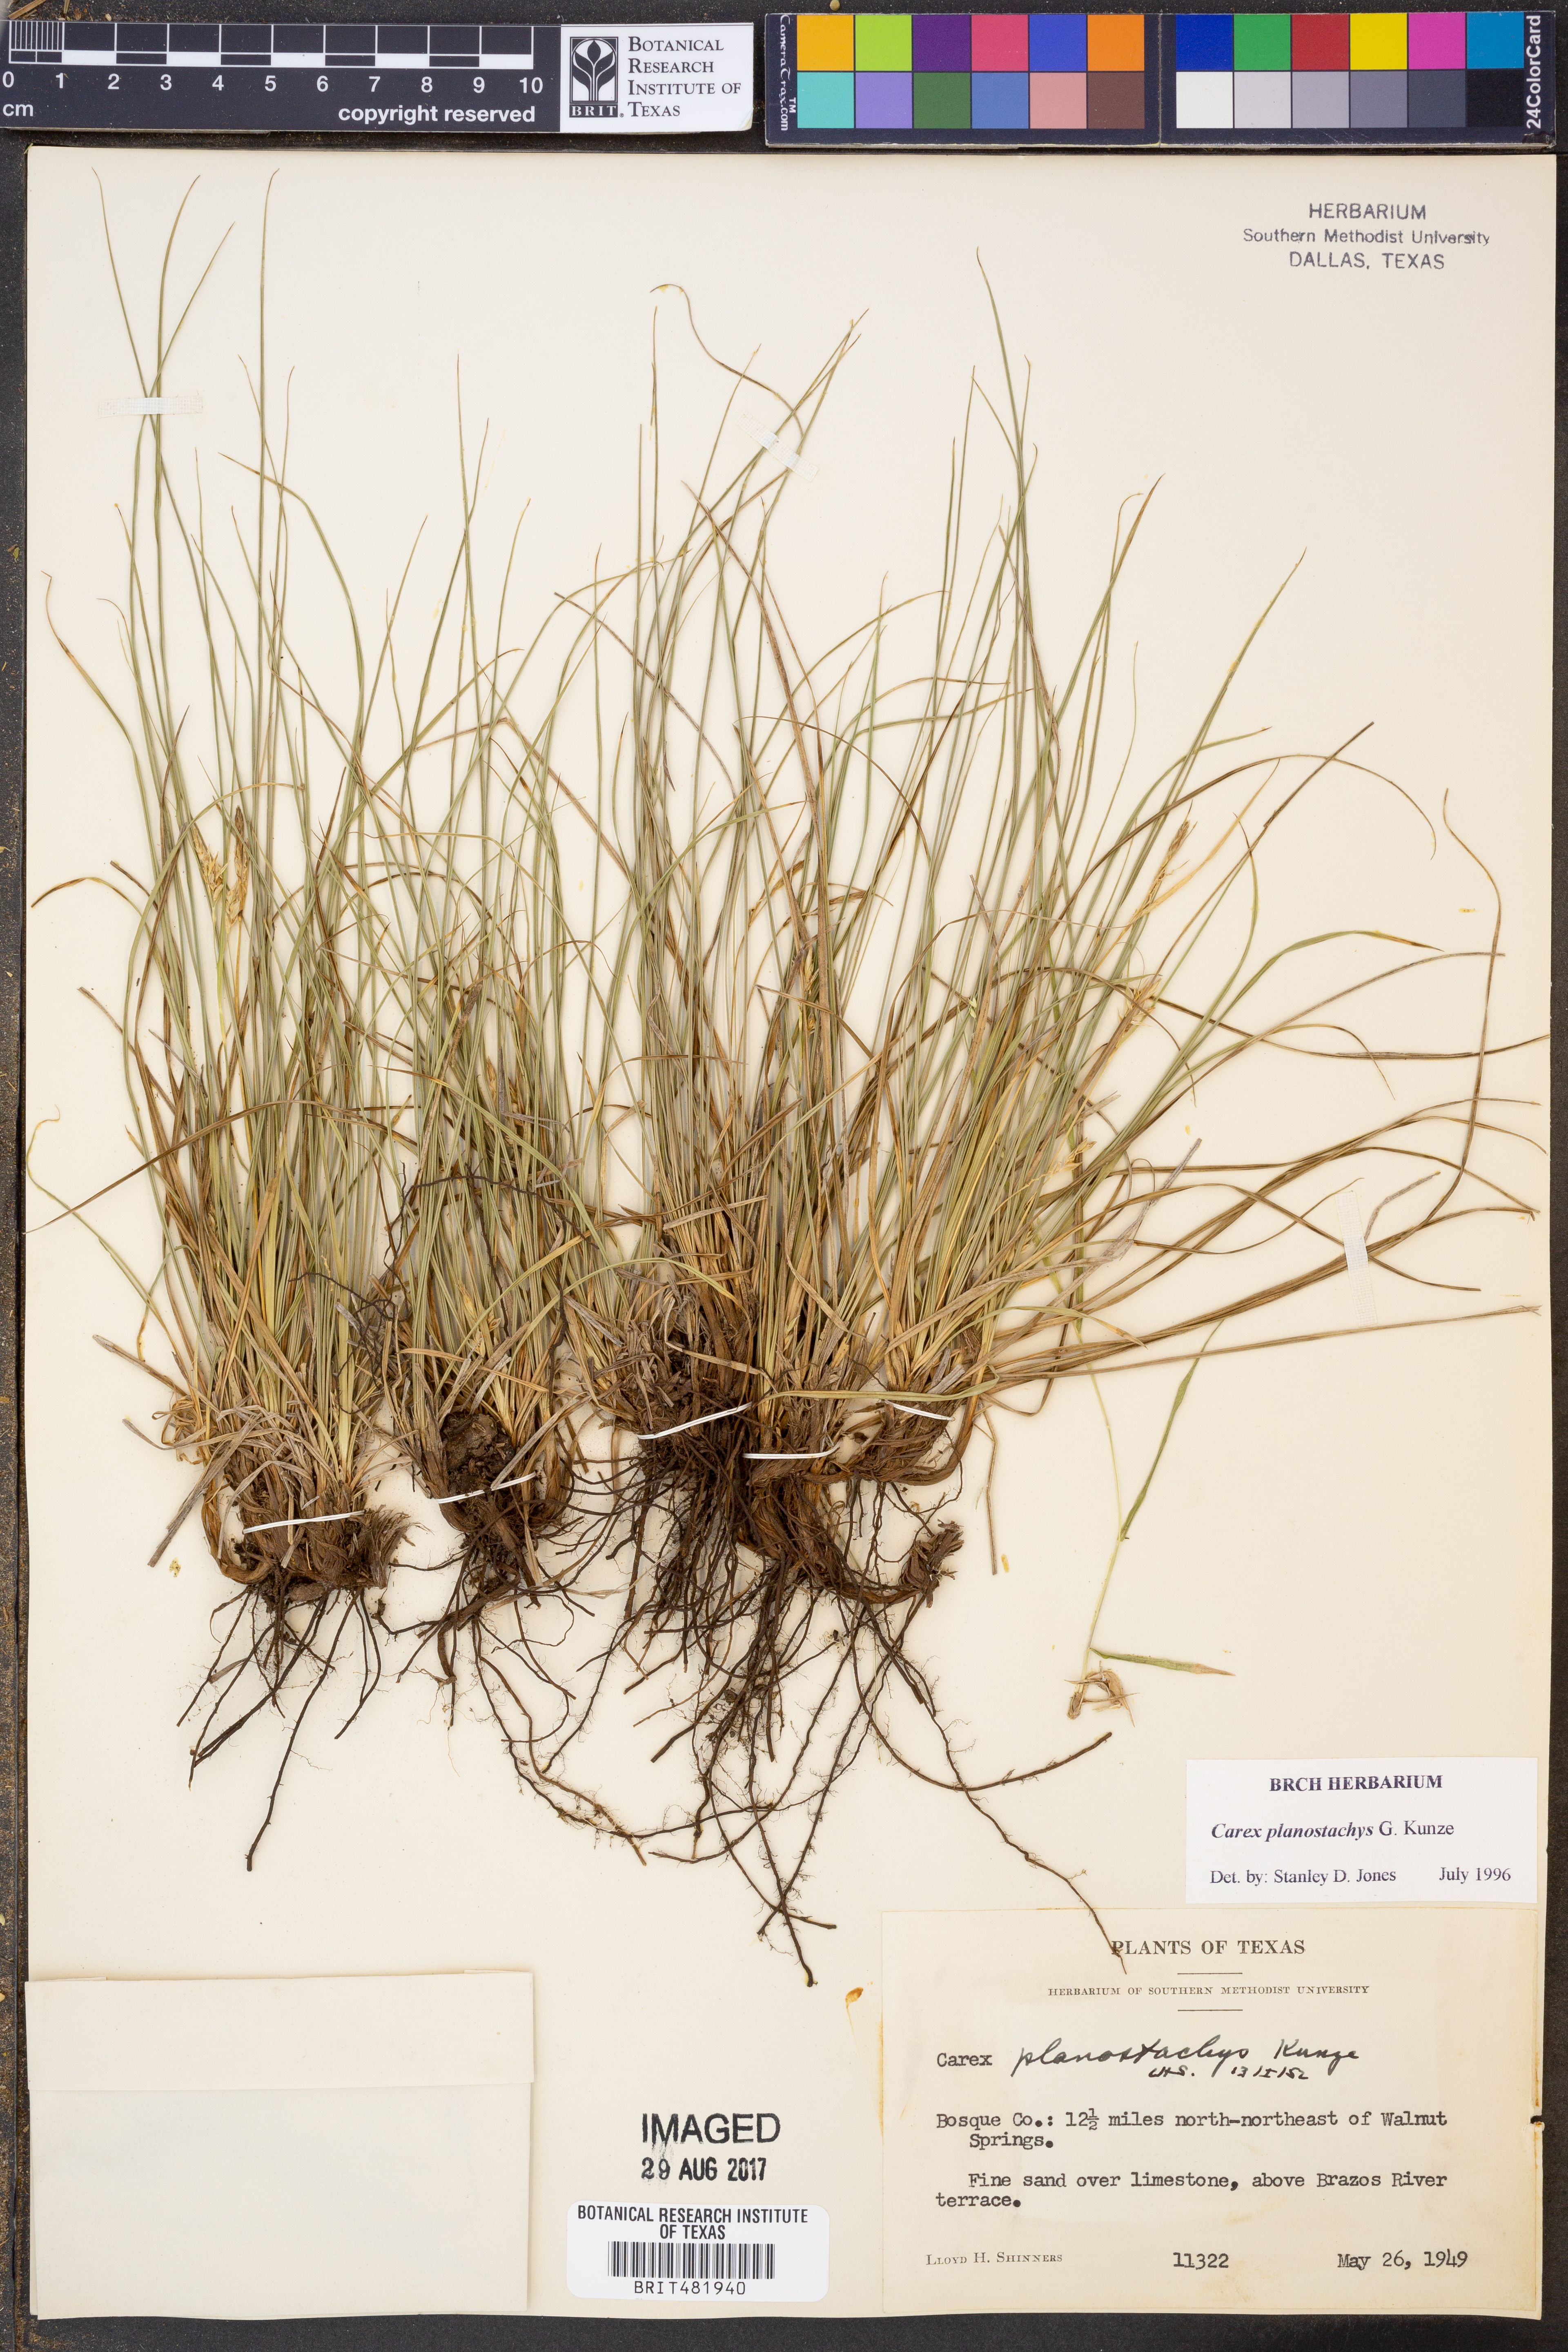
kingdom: Plantae
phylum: Tracheophyta
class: Liliopsida
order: Poales
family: Cyperaceae
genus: Carex
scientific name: Carex planostachys
